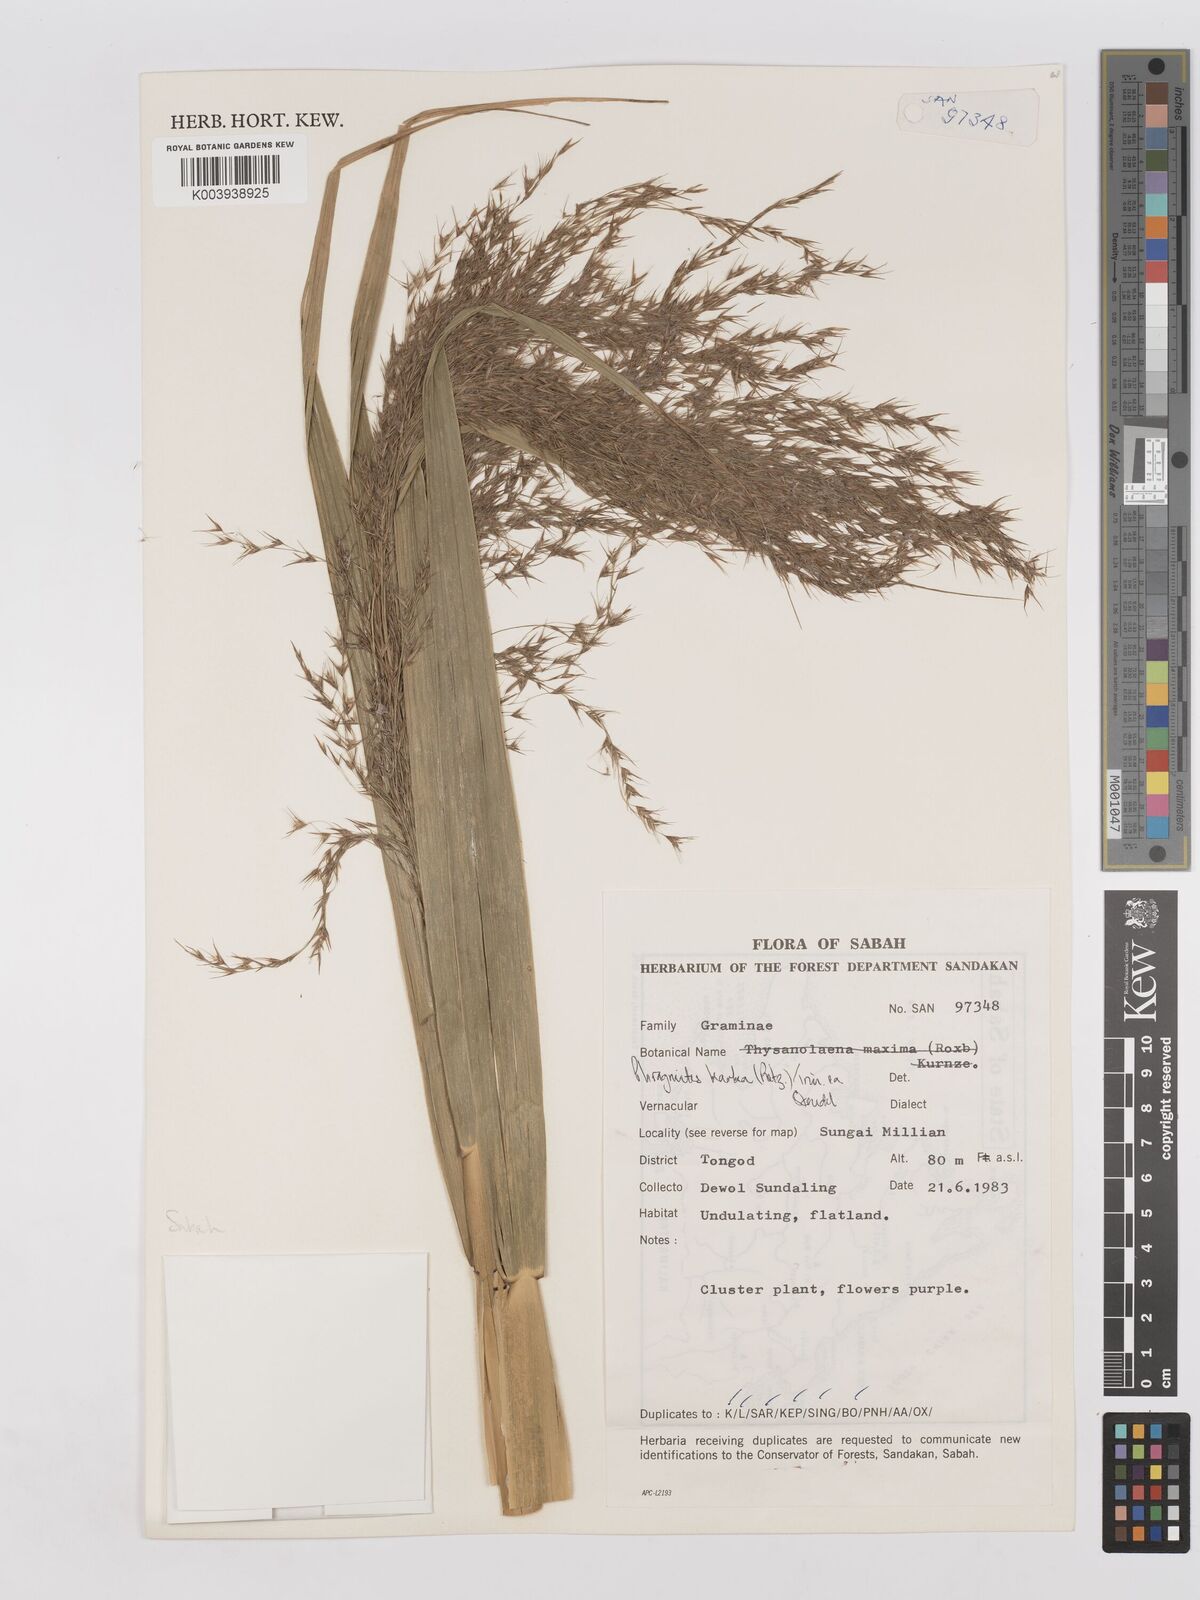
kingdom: Plantae
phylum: Tracheophyta
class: Liliopsida
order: Poales
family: Poaceae
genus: Phragmites
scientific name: Phragmites karka
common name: Tropical reed
